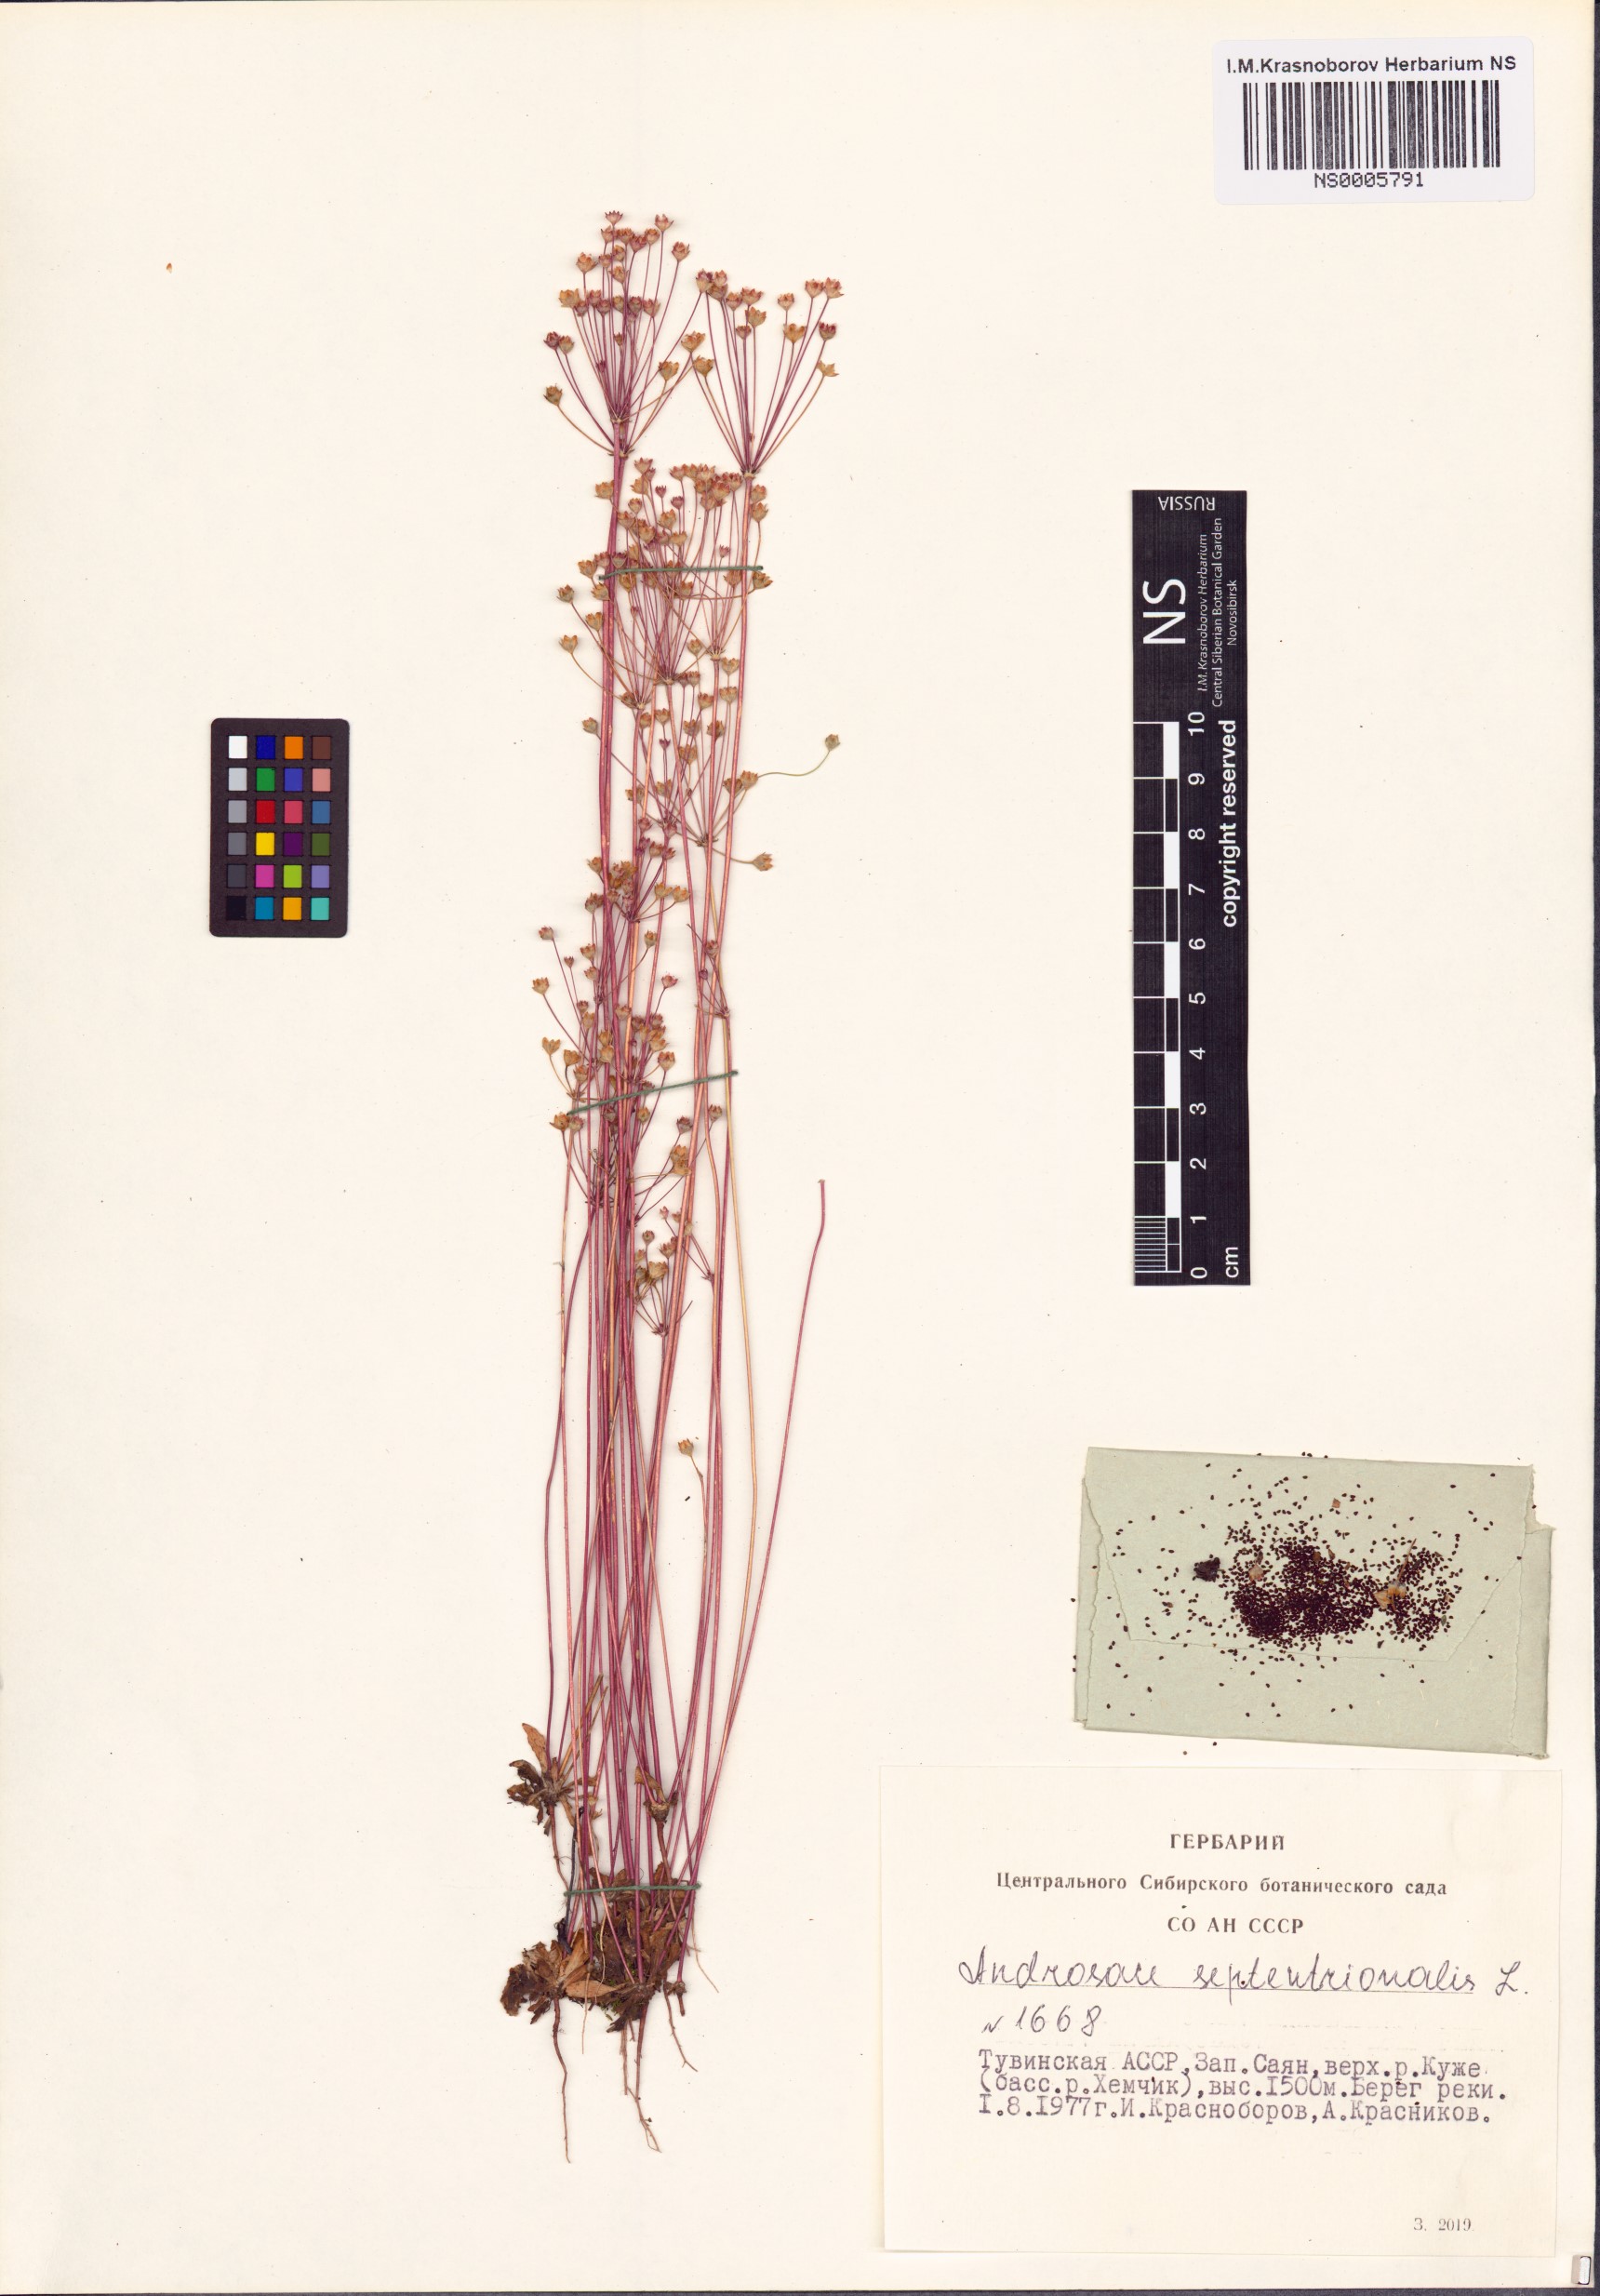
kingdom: Plantae
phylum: Tracheophyta
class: Magnoliopsida
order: Ericales
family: Primulaceae
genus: Androsace
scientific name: Androsace septentrionalis
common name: Hairy northern fairy-candelabra
